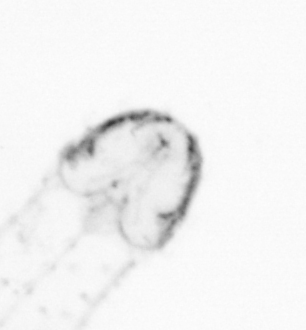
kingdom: Animalia
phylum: Arthropoda
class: Copepoda
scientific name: Copepoda
